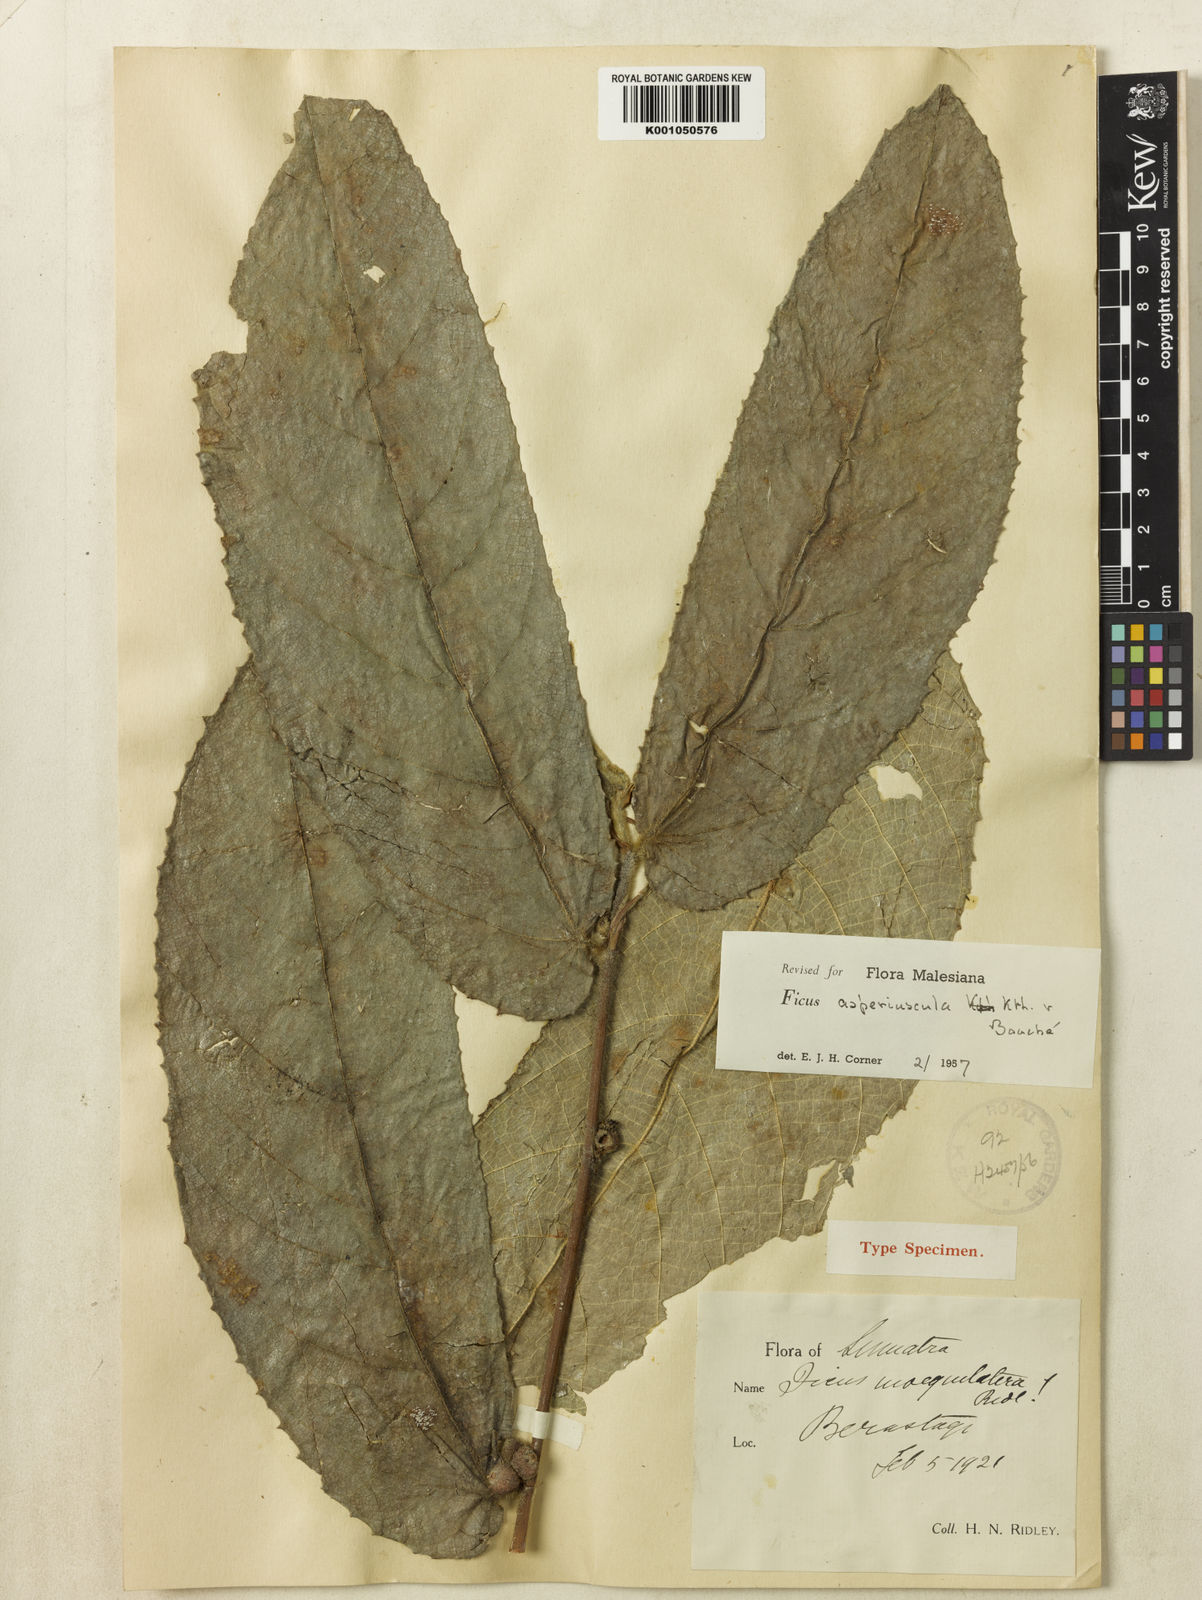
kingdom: Plantae
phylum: Tracheophyta
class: Magnoliopsida
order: Rosales
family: Moraceae
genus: Ficus
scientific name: Ficus
